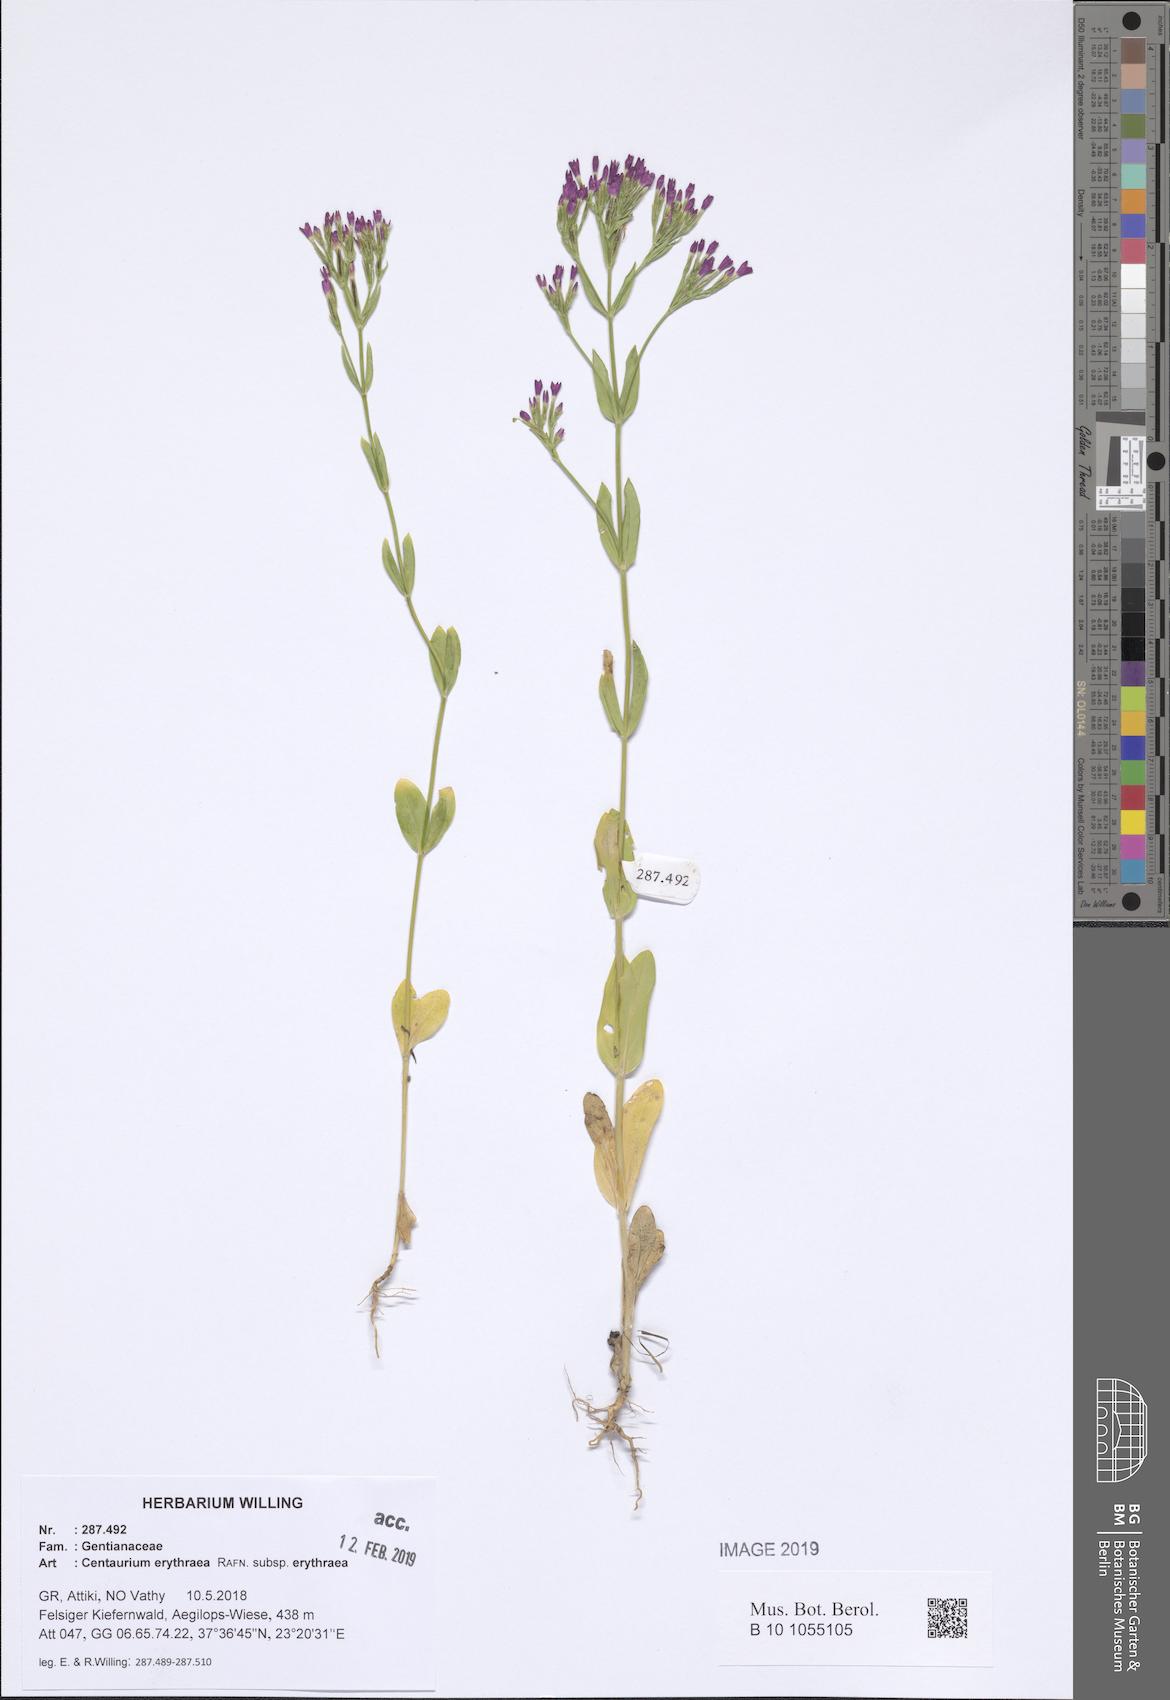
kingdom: Plantae
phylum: Tracheophyta
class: Magnoliopsida
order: Gentianales
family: Gentianaceae
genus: Centaurium
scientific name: Centaurium erythraea
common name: Common centaury
